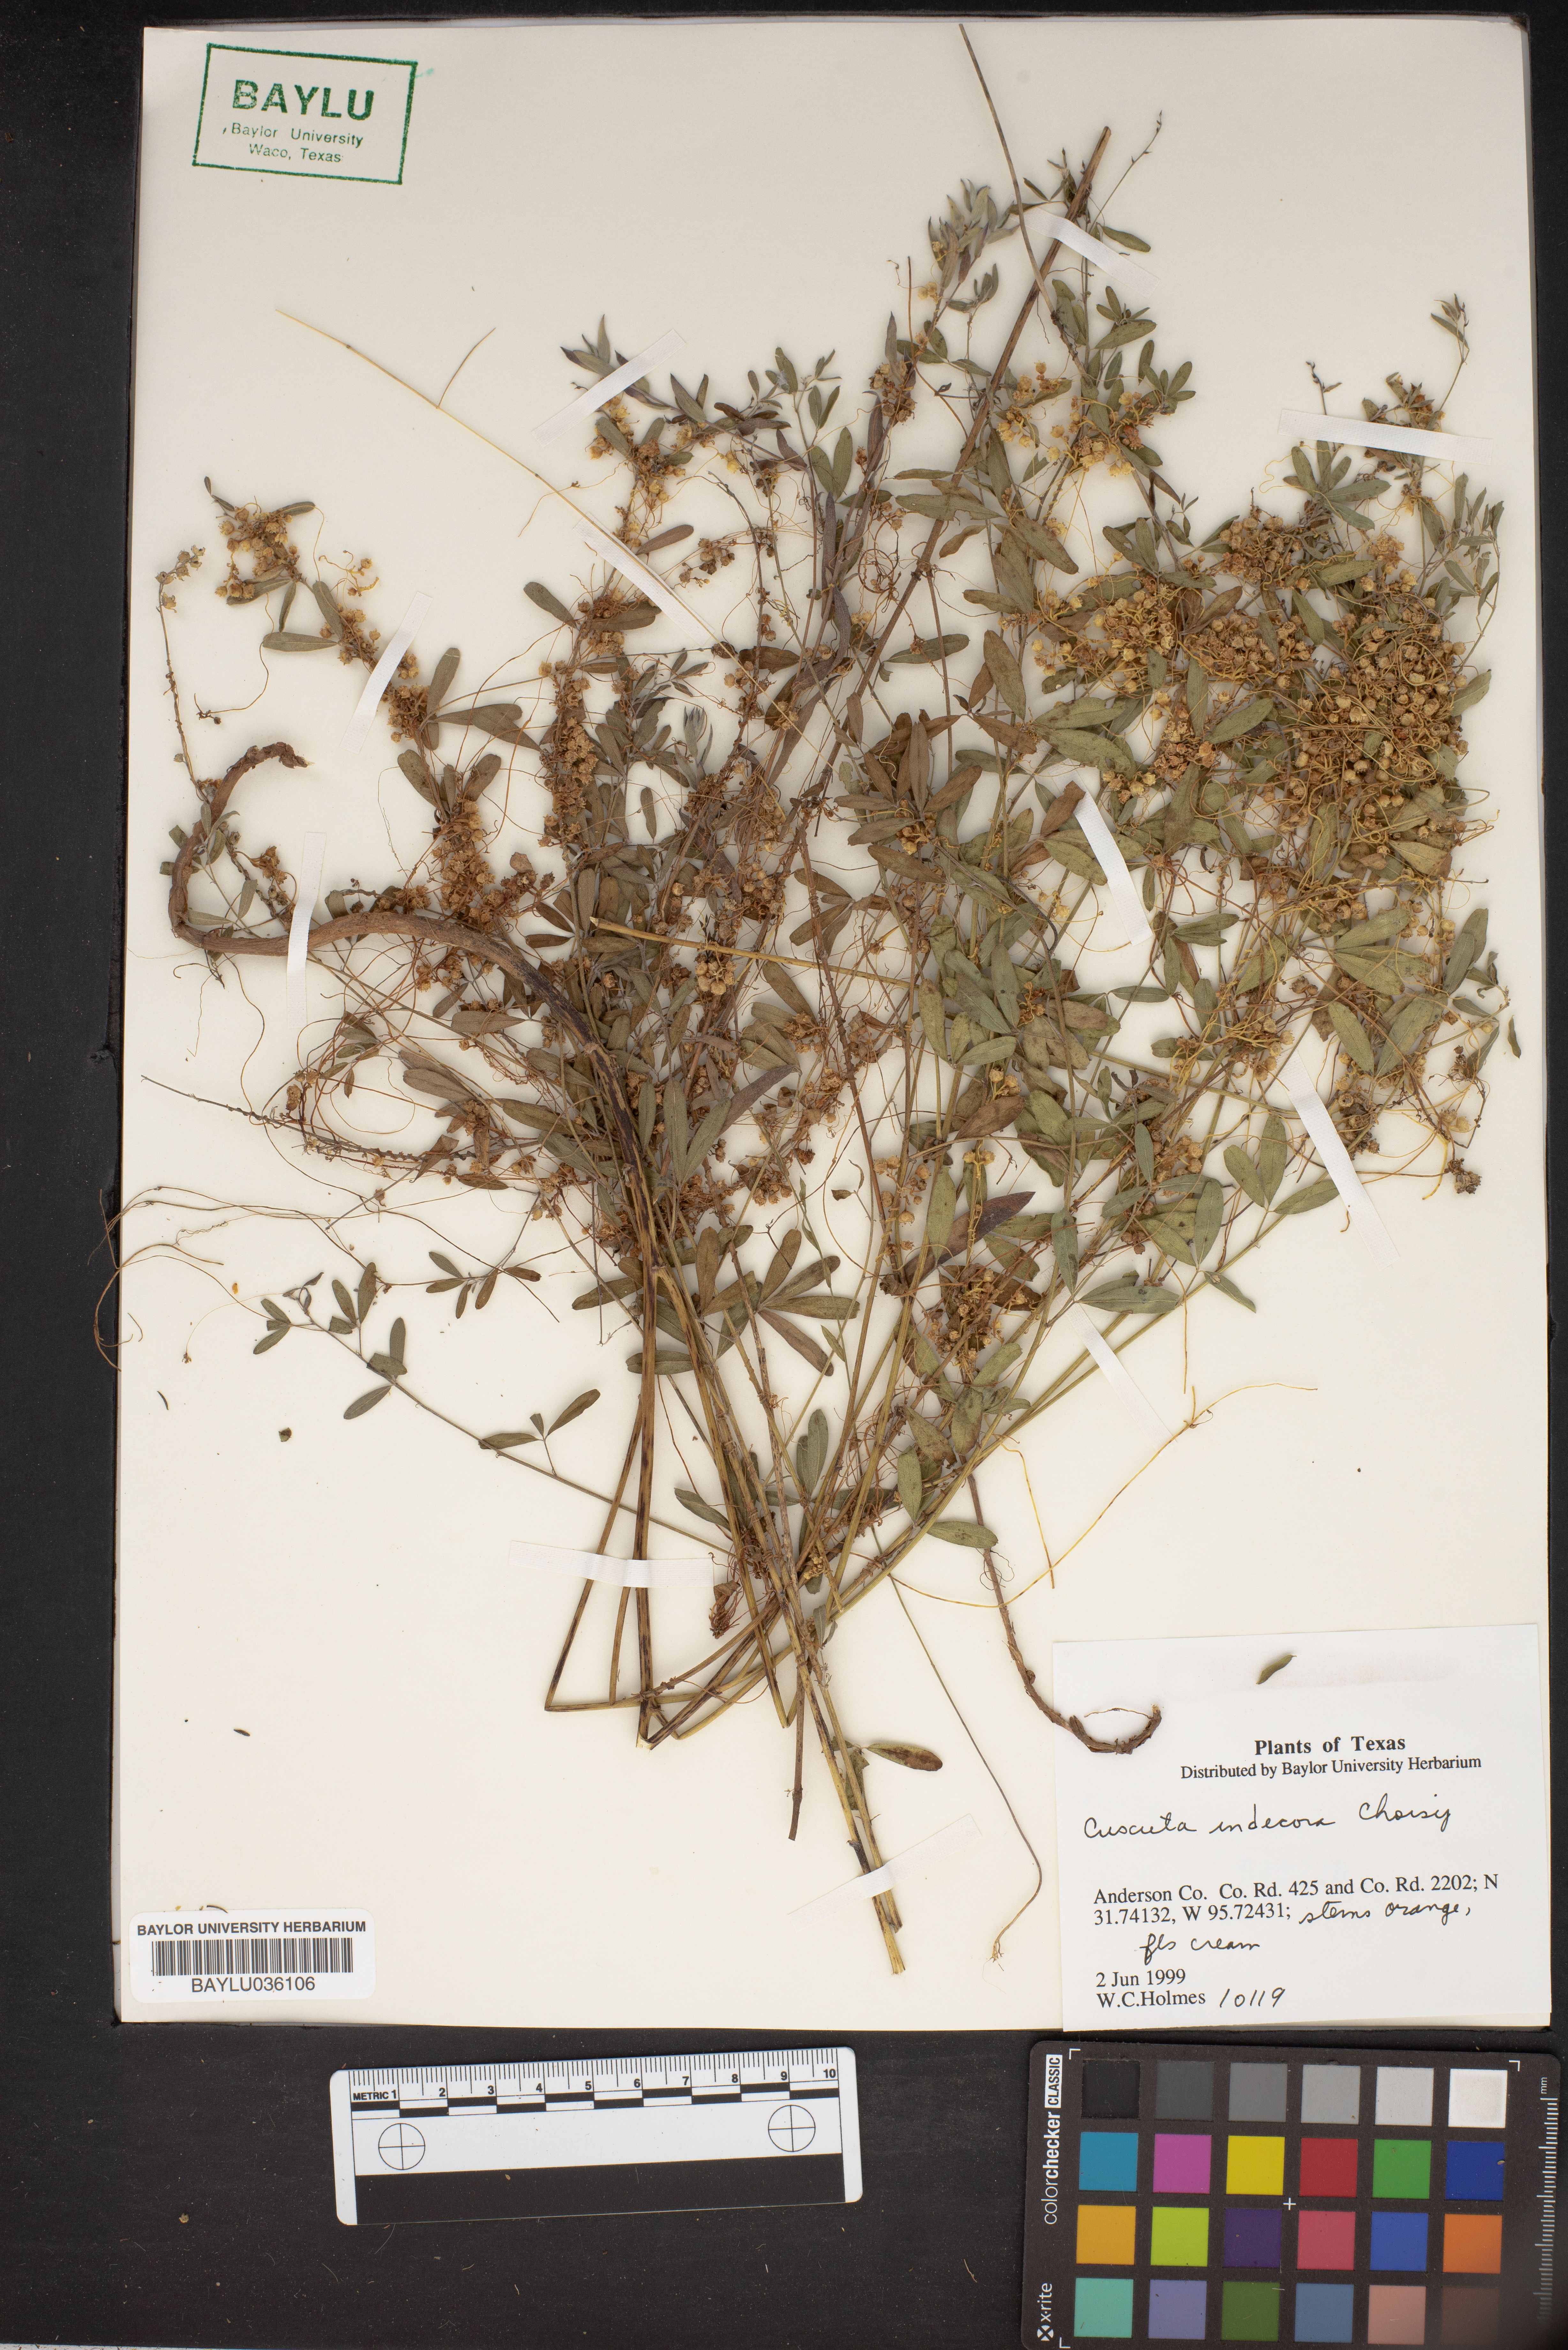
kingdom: Plantae
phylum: Tracheophyta
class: Magnoliopsida
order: Solanales
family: Convolvulaceae
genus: Cuscuta
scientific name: Cuscuta indecora
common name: Large-seed dodder
